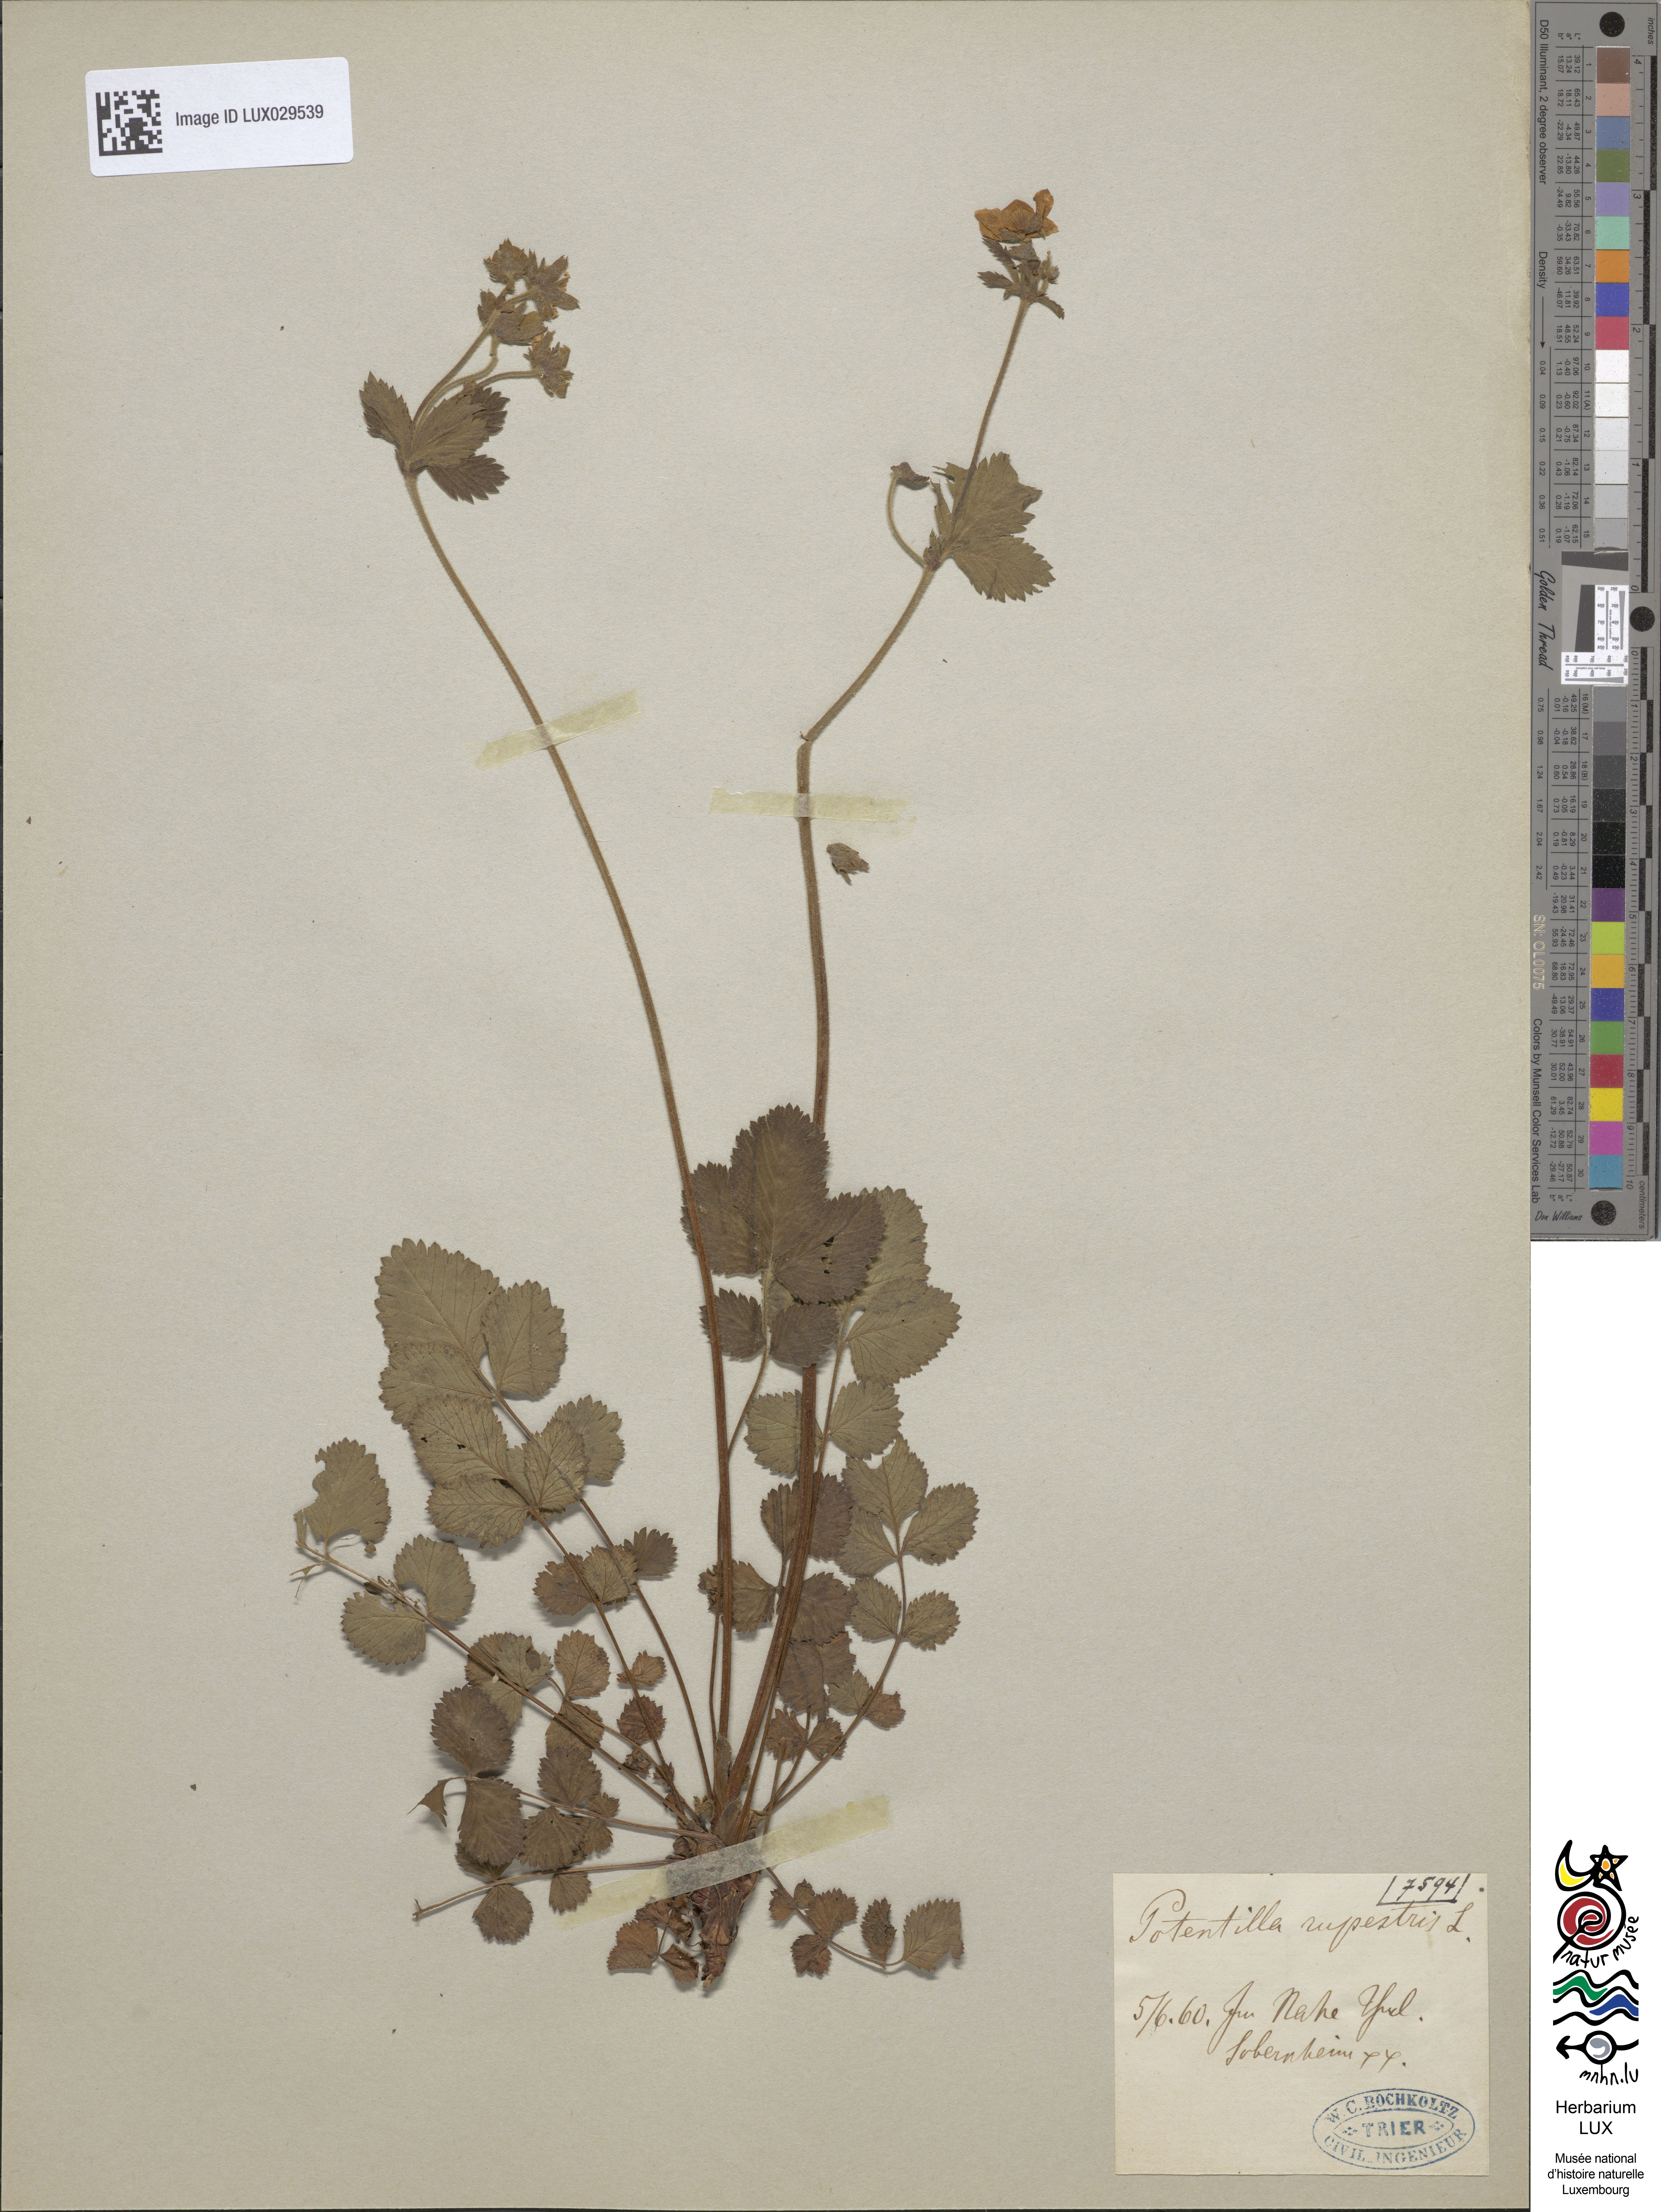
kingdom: Plantae
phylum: Tracheophyta
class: Magnoliopsida
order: Rosales
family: Rosaceae
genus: Drymocallis
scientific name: Drymocallis rupestris
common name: Rock cinquefoil
